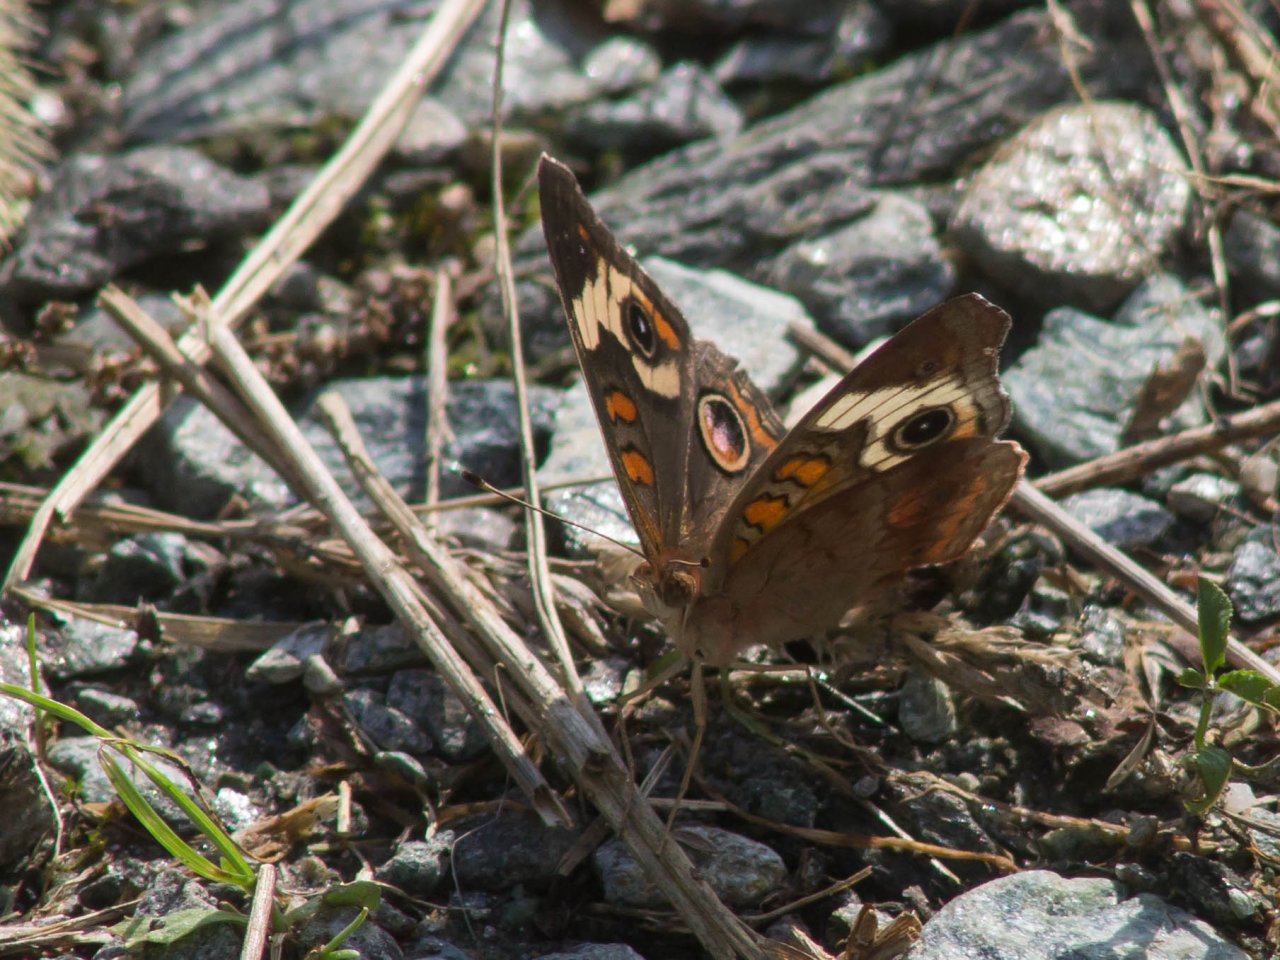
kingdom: Animalia
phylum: Arthropoda
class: Insecta
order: Lepidoptera
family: Nymphalidae
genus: Junonia
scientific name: Junonia coenia
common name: Common Buckeye
